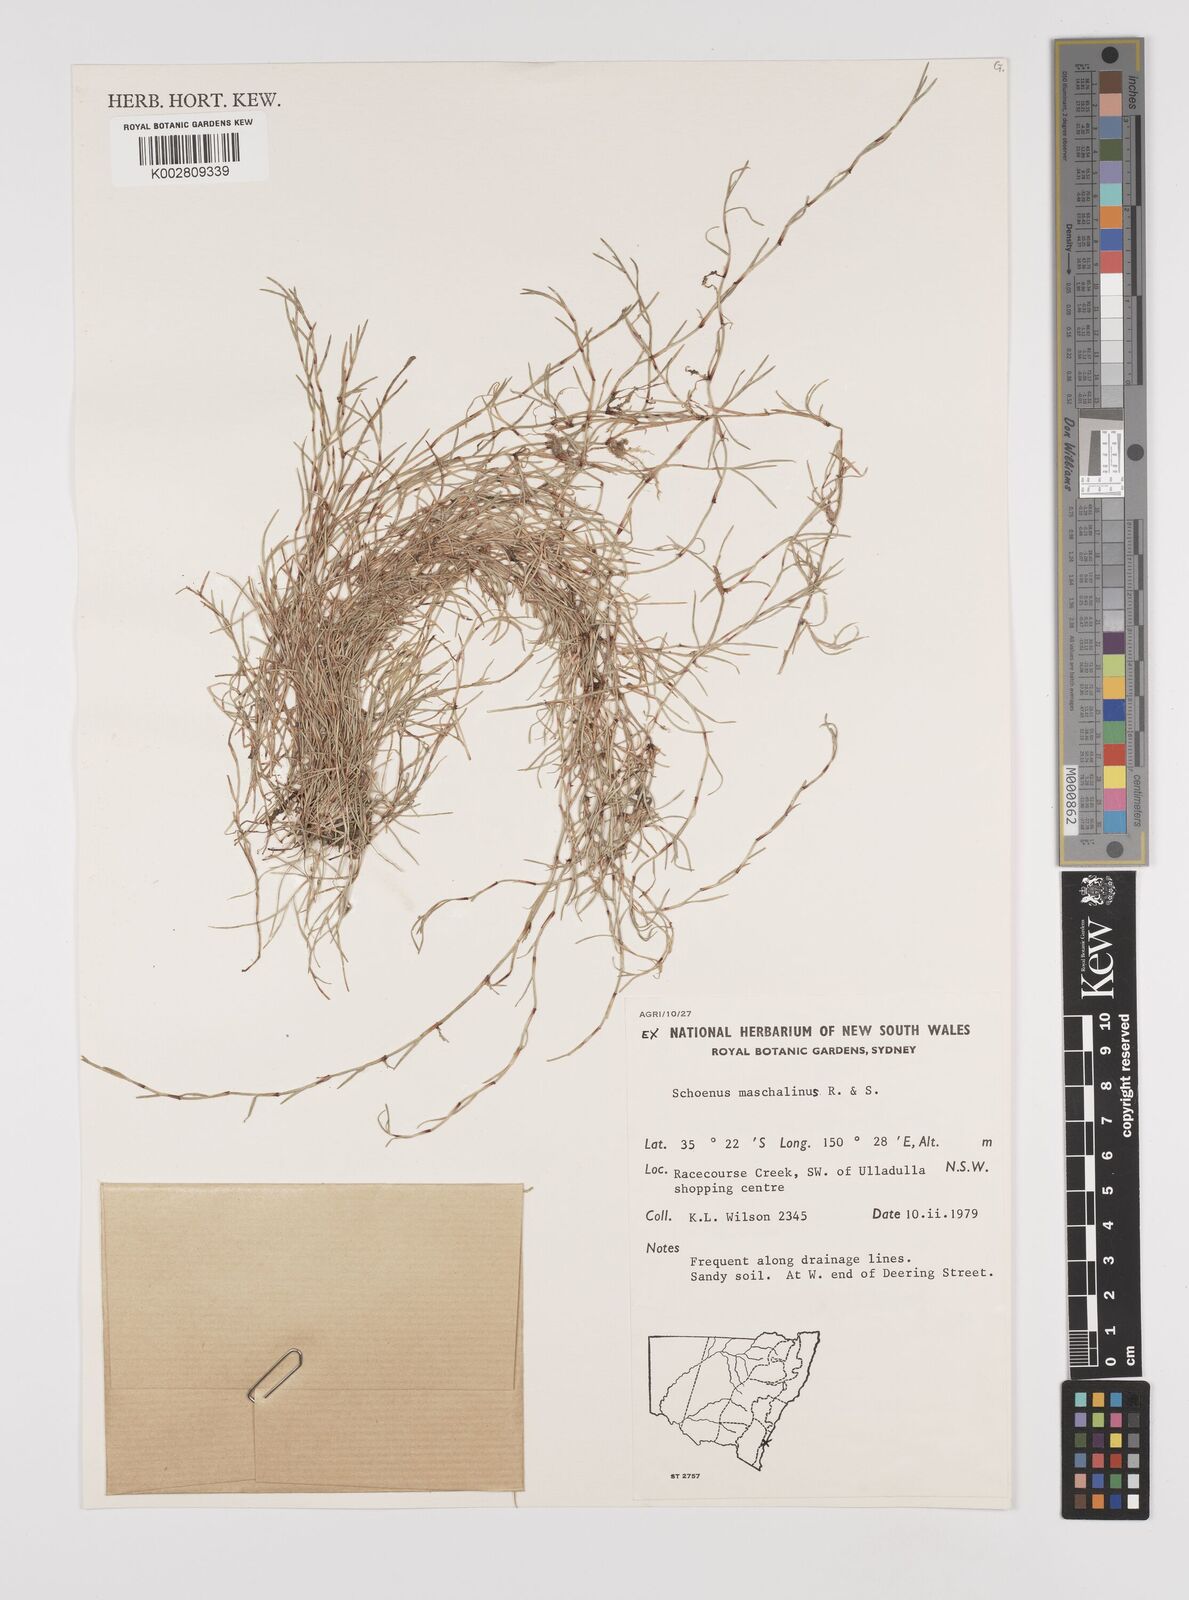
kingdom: Plantae
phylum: Tracheophyta
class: Liliopsida
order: Poales
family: Cyperaceae
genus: Schoenus
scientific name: Schoenus maschalinus
